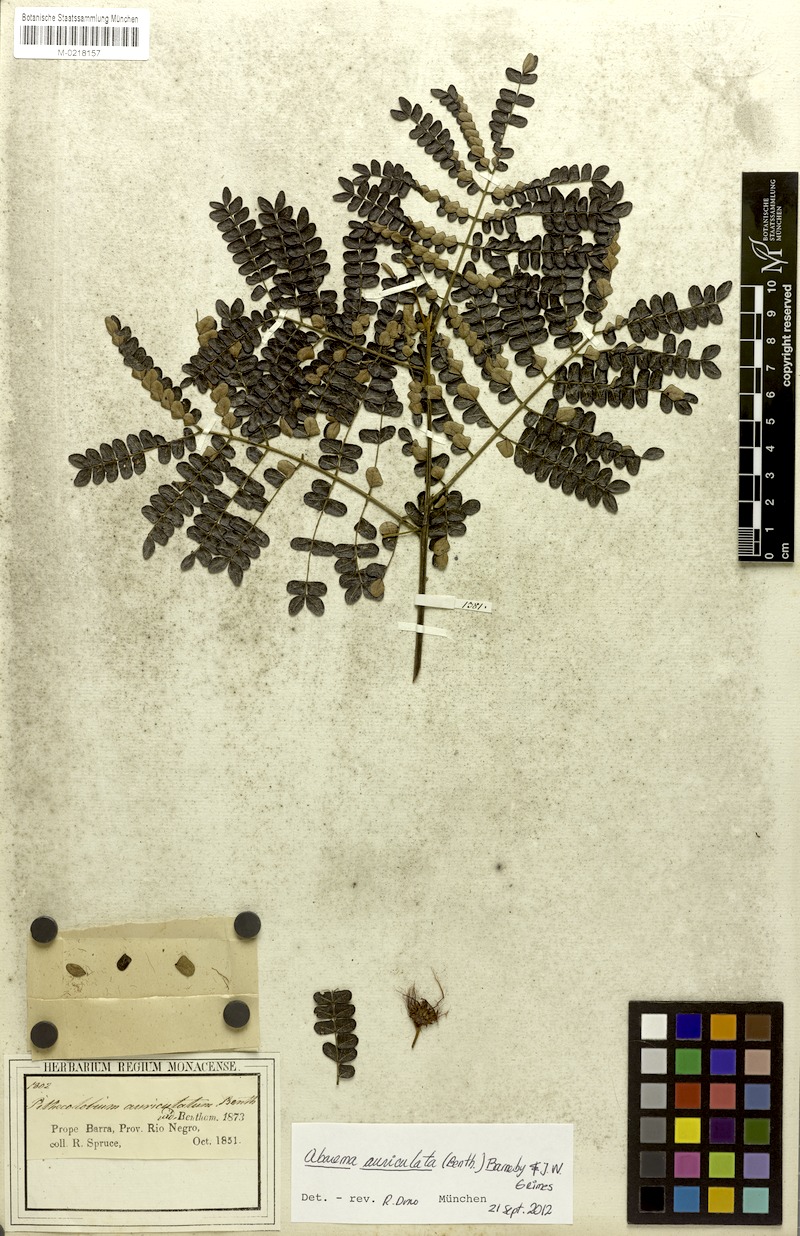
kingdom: Plantae
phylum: Tracheophyta
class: Magnoliopsida
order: Fabales
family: Fabaceae
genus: Jupunba
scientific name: Jupunba auriculata
